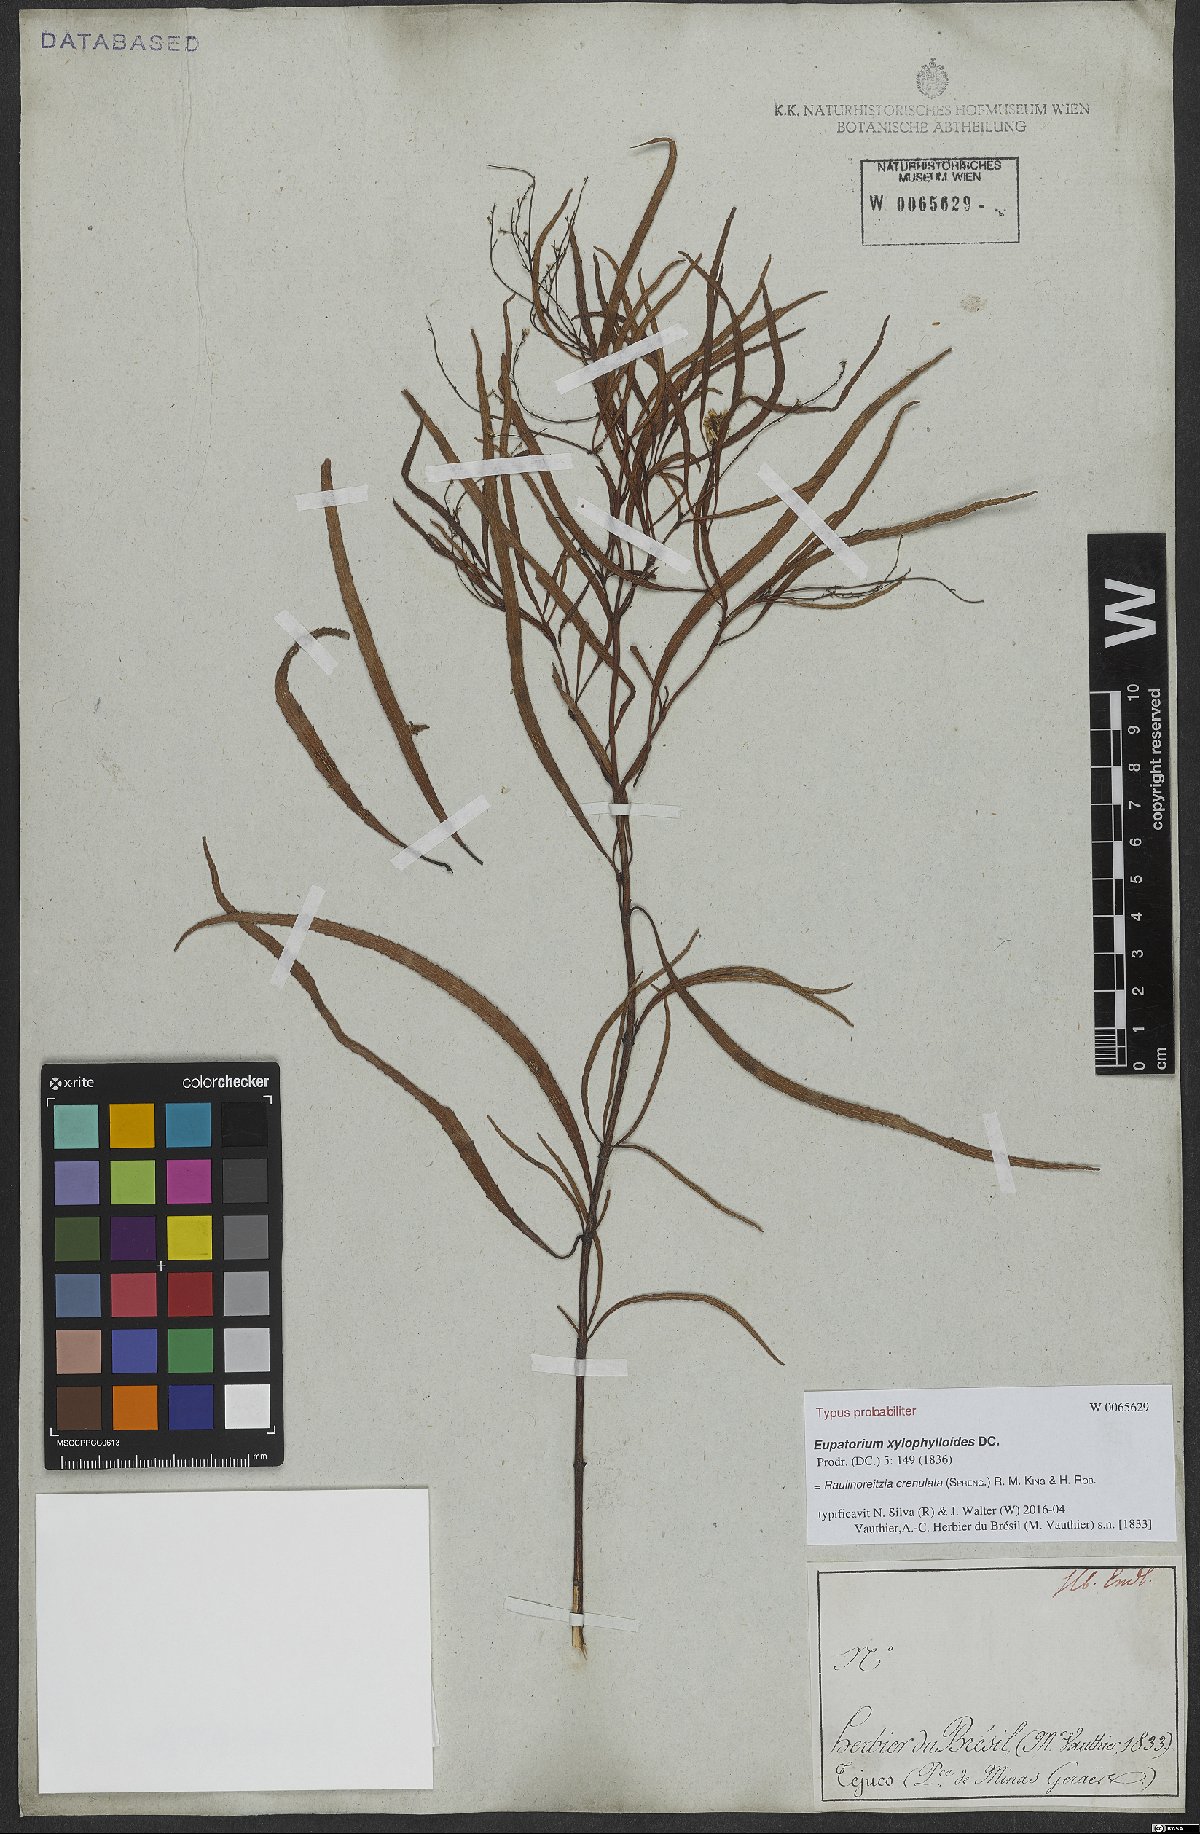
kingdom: Plantae
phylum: Tracheophyta
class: Magnoliopsida
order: Asterales
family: Asteraceae
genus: Raulinoreitzia
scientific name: Raulinoreitzia crenulata
